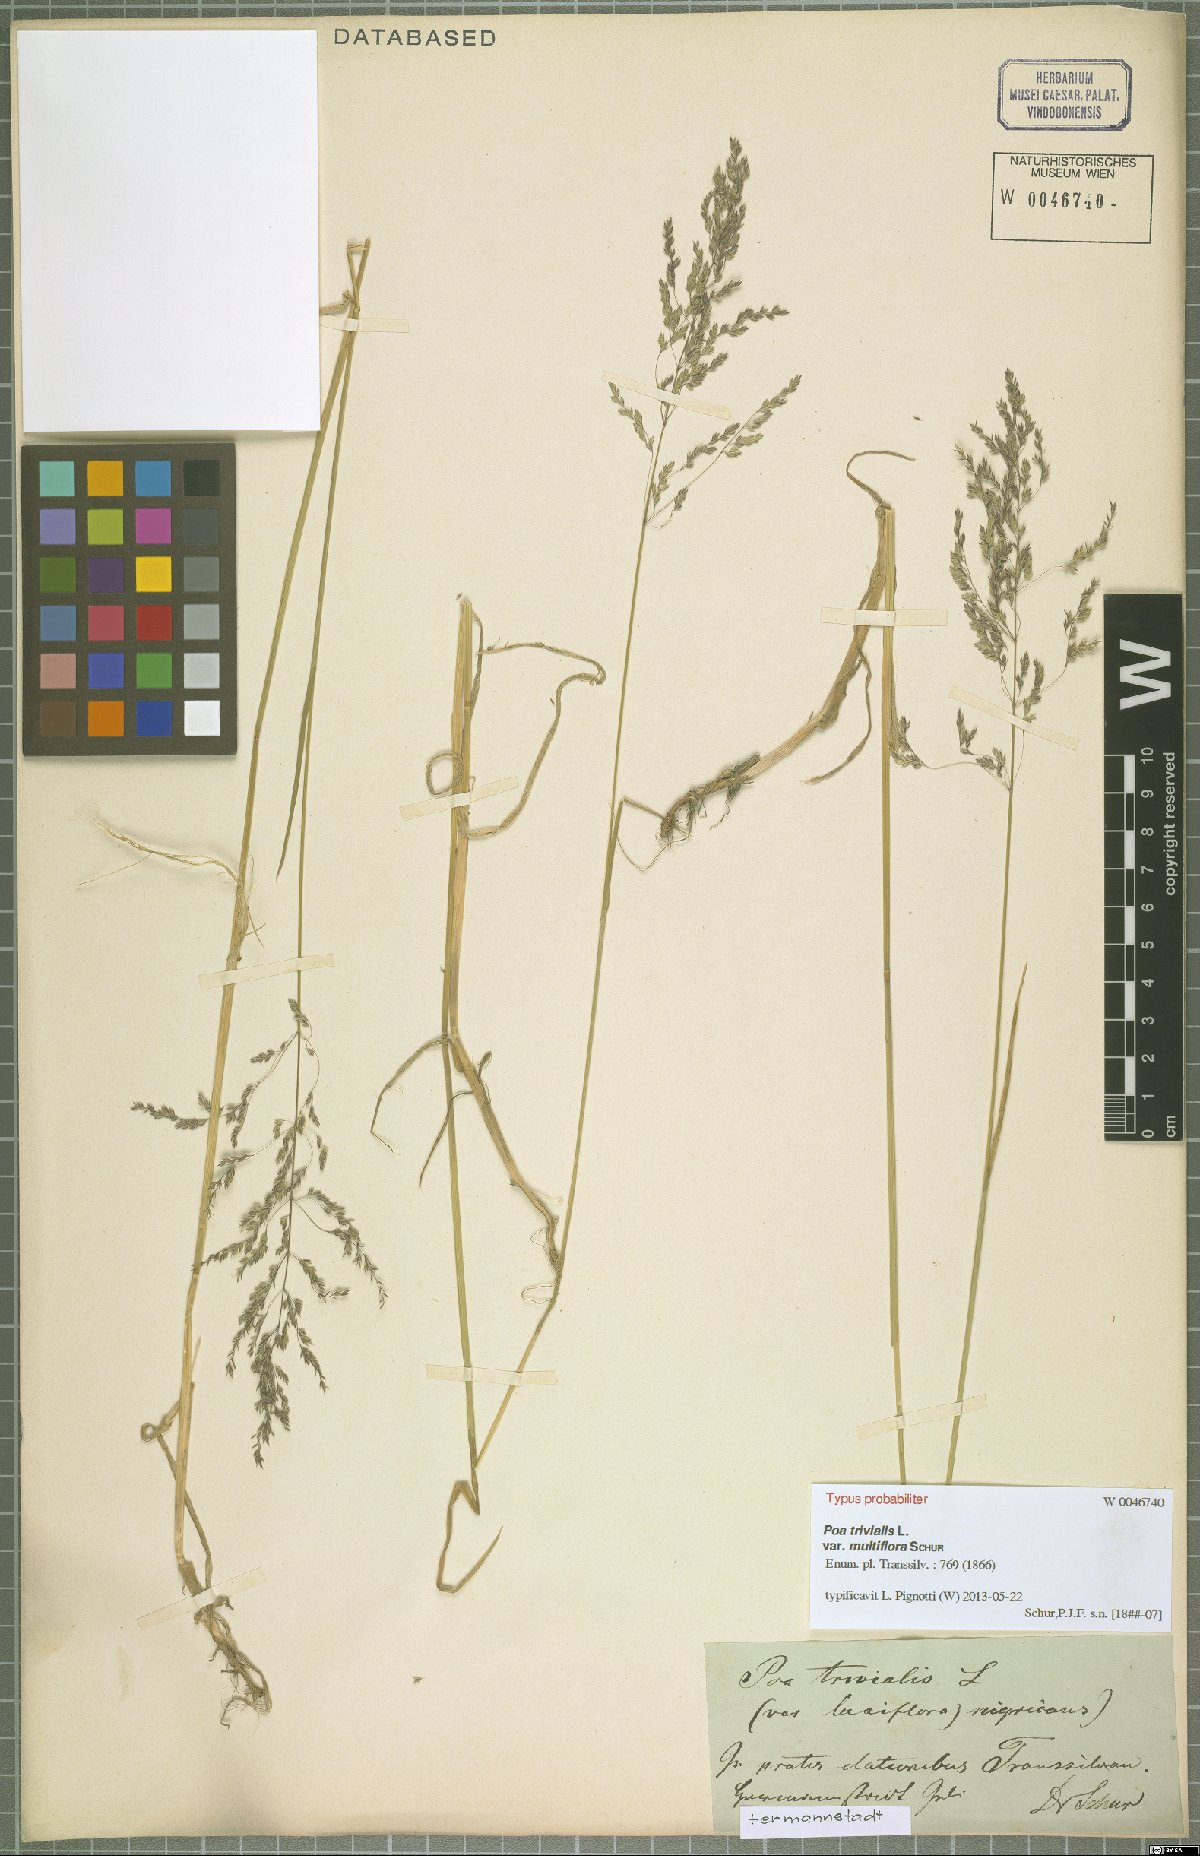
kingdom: Plantae
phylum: Tracheophyta
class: Liliopsida
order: Poales
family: Poaceae
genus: Poa
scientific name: Poa trivialis
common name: Rough bluegrass
